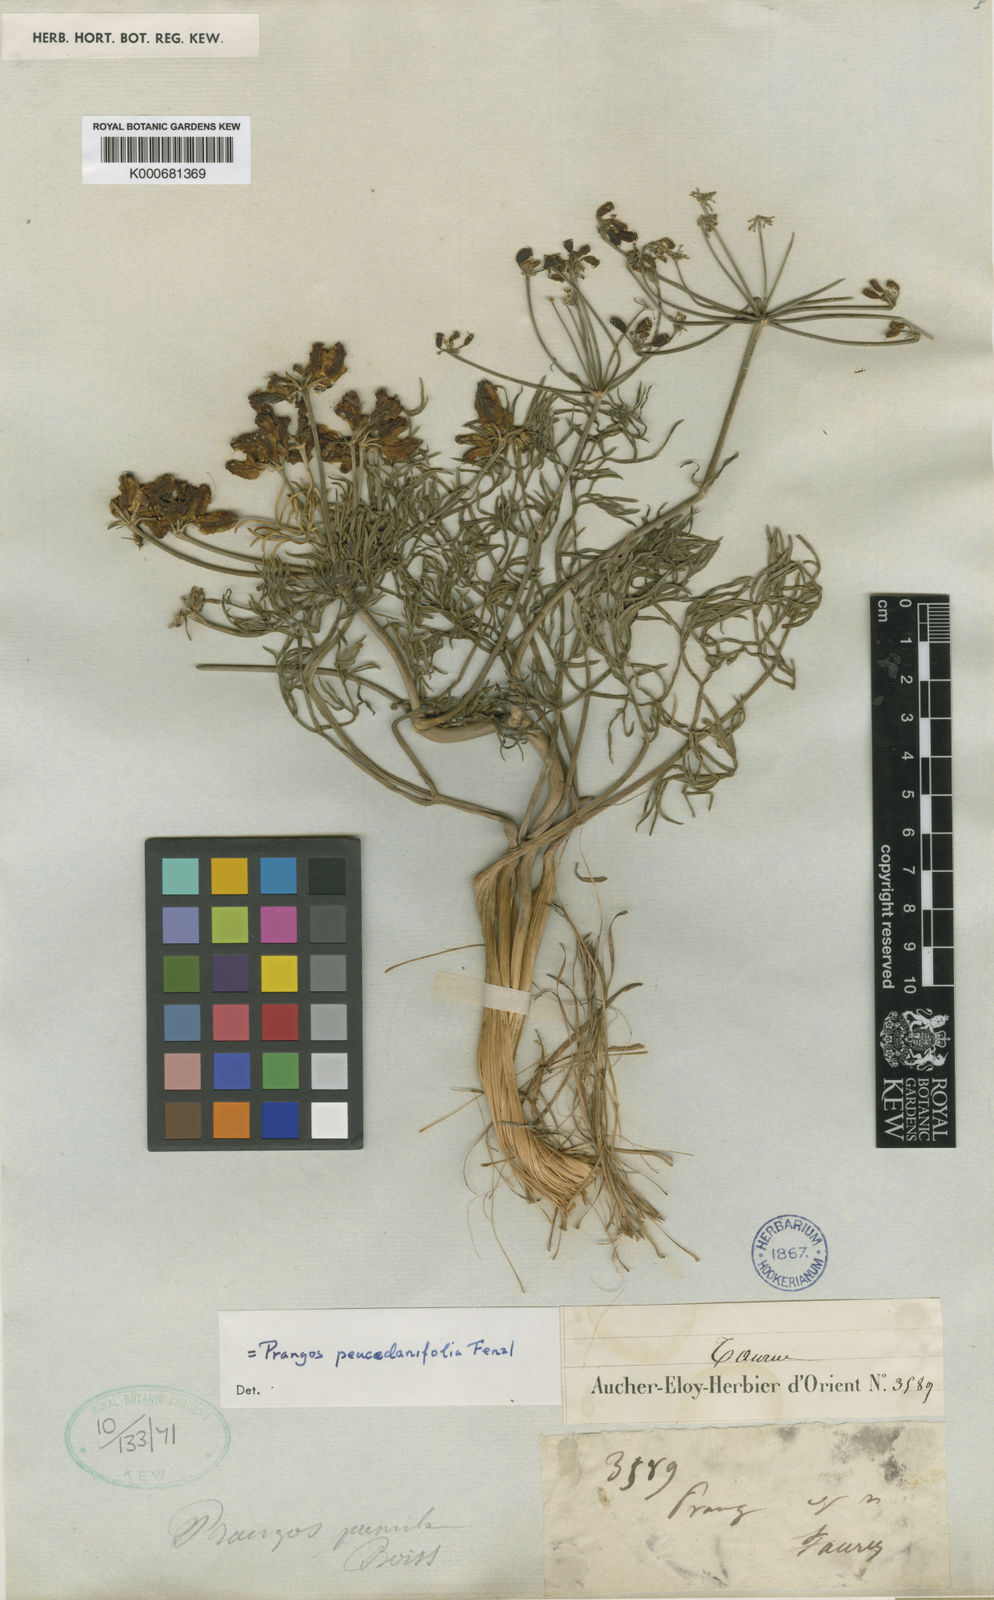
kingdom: Plantae
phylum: Tracheophyta
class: Magnoliopsida
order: Apiales
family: Apiaceae
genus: Prangos
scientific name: Prangos peucedanifolia
